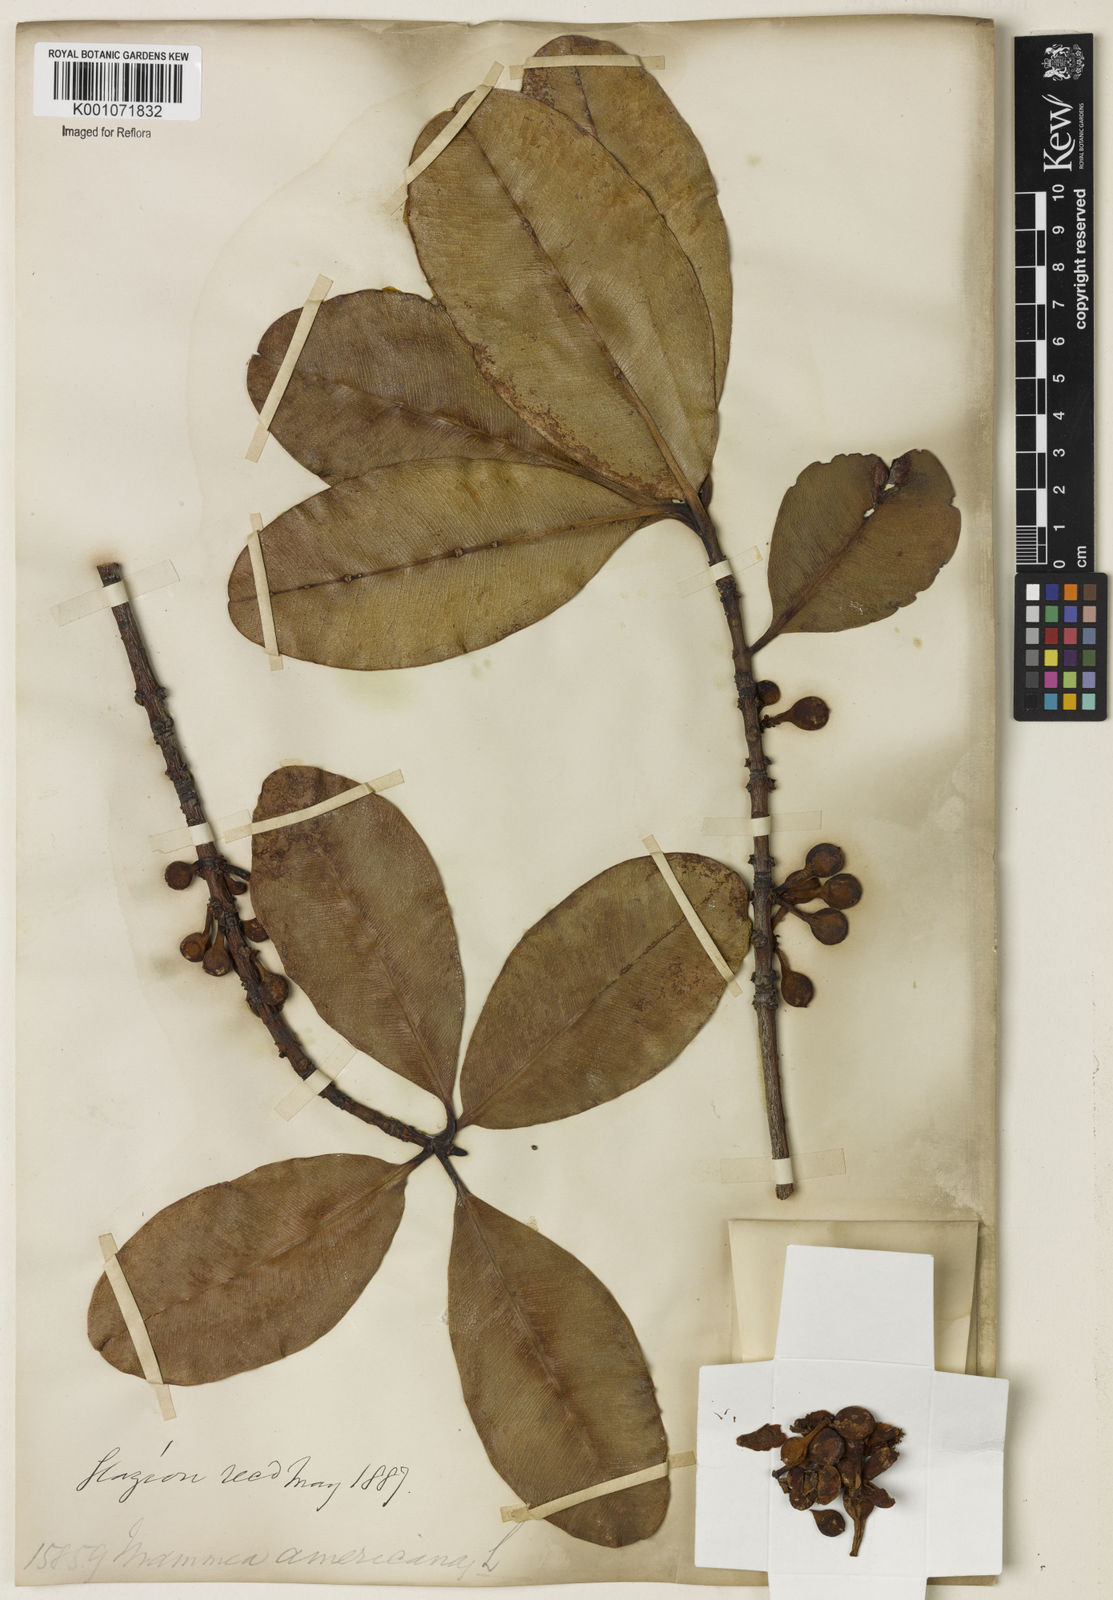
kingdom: Plantae
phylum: Tracheophyta
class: Magnoliopsida
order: Malpighiales
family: Calophyllaceae
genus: Mammea
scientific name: Mammea americana
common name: Mamey
